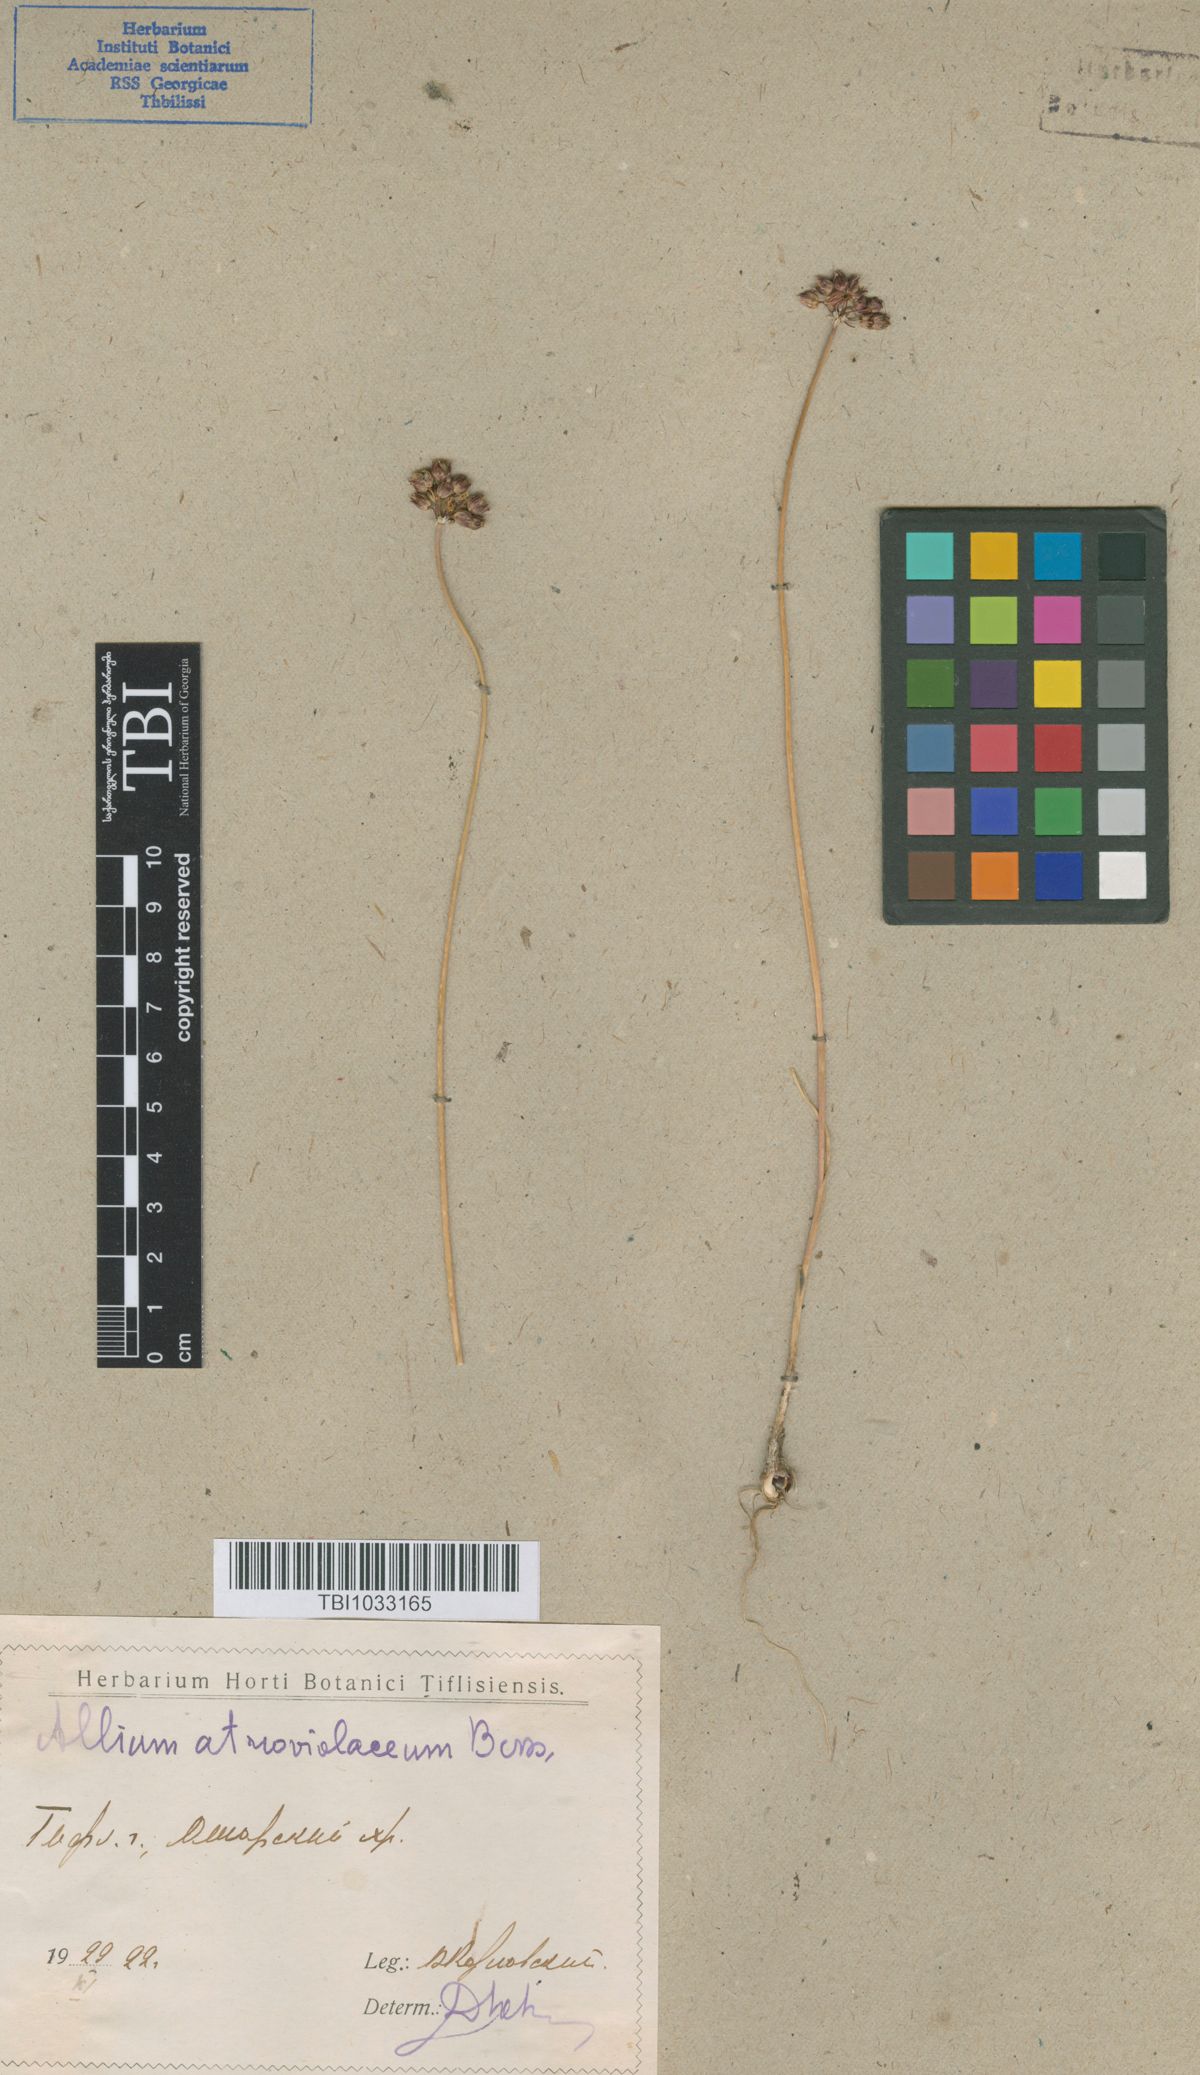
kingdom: Plantae
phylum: Tracheophyta
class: Liliopsida
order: Asparagales
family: Amaryllidaceae
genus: Allium
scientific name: Allium atroviolaceum
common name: Broadleaf wild leek
